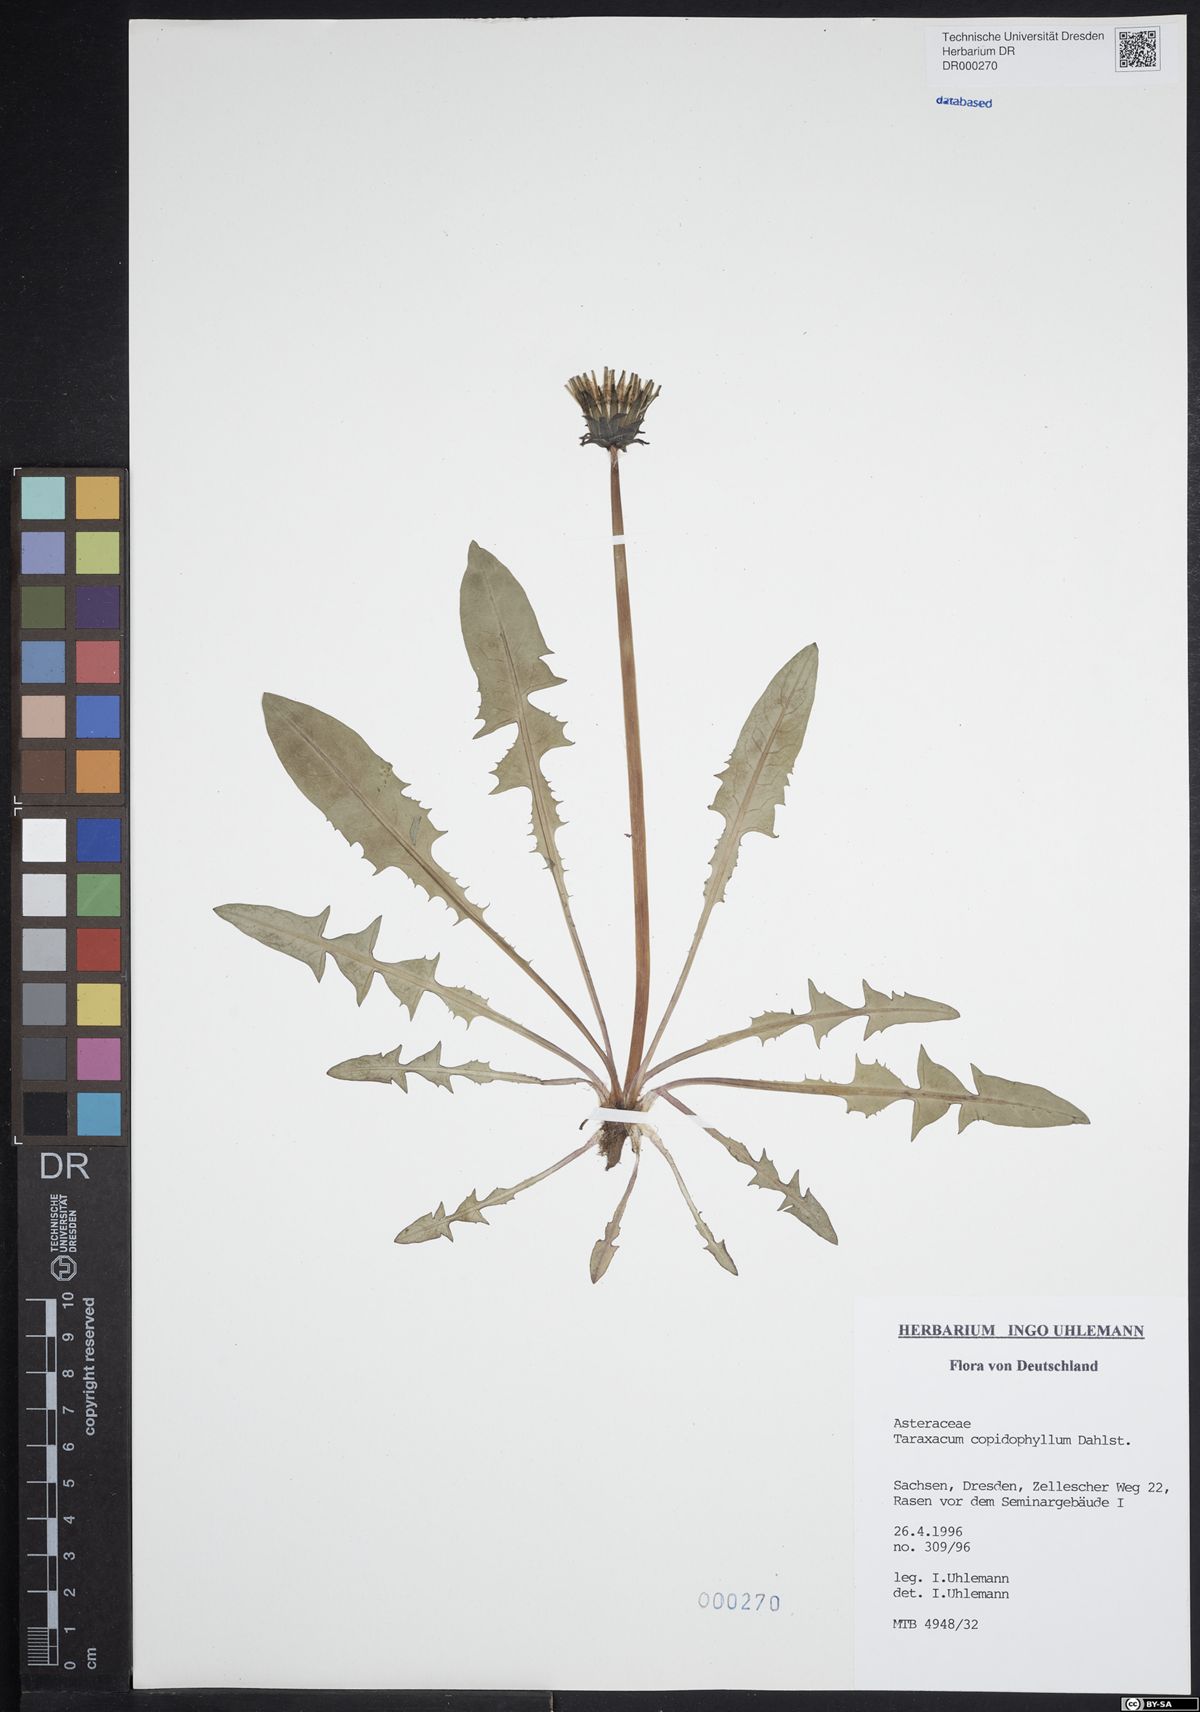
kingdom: Plantae
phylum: Tracheophyta
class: Magnoliopsida
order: Asterales
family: Asteraceae
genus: Taraxacum
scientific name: Taraxacum copidophyllum
